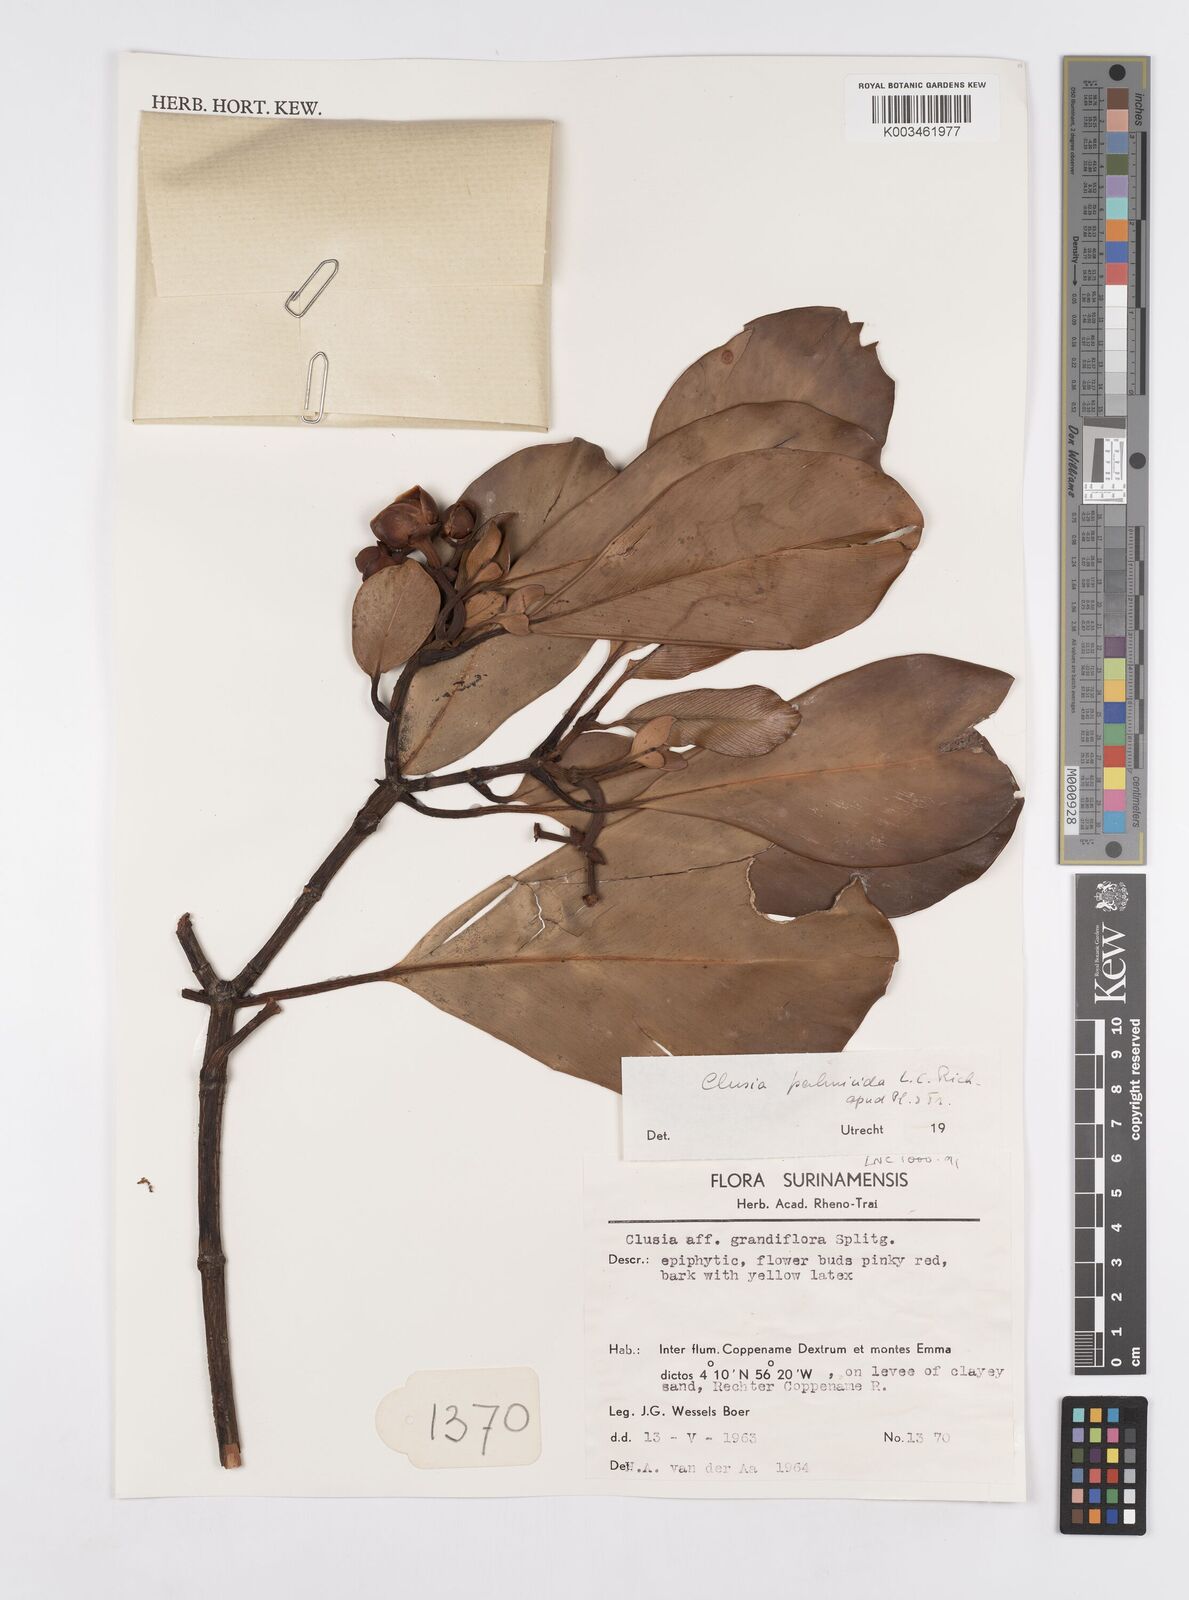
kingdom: Plantae
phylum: Tracheophyta
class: Magnoliopsida
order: Malpighiales
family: Clusiaceae
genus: Clusia
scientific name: Clusia palmicida
